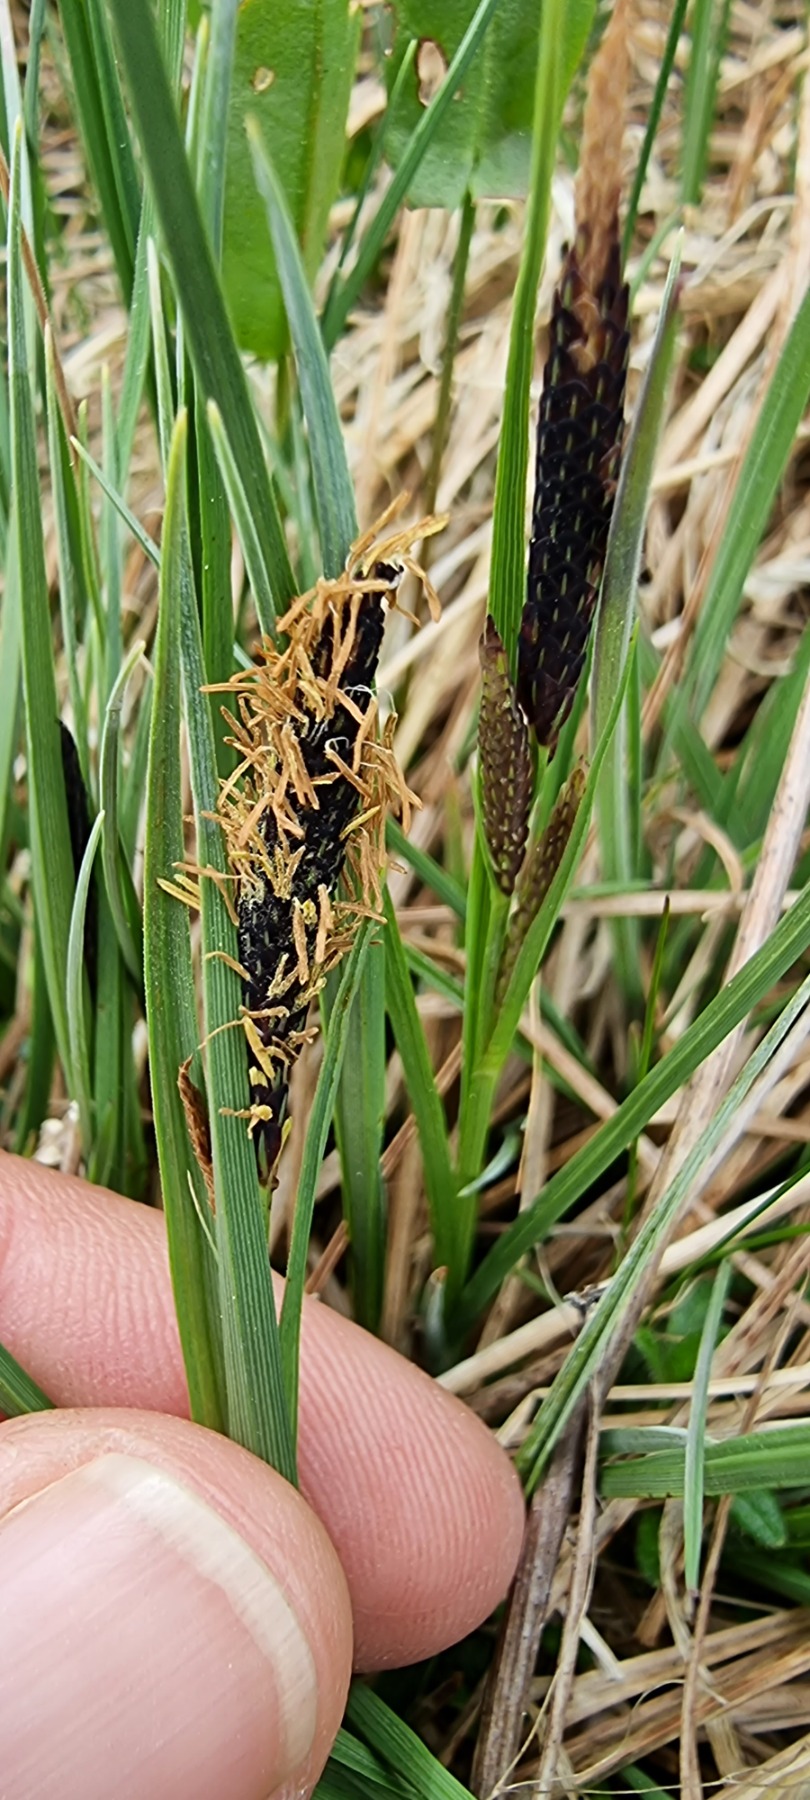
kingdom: Plantae
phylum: Tracheophyta
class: Liliopsida
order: Poales
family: Cyperaceae
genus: Carex
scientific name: Carex
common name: Starslægten
